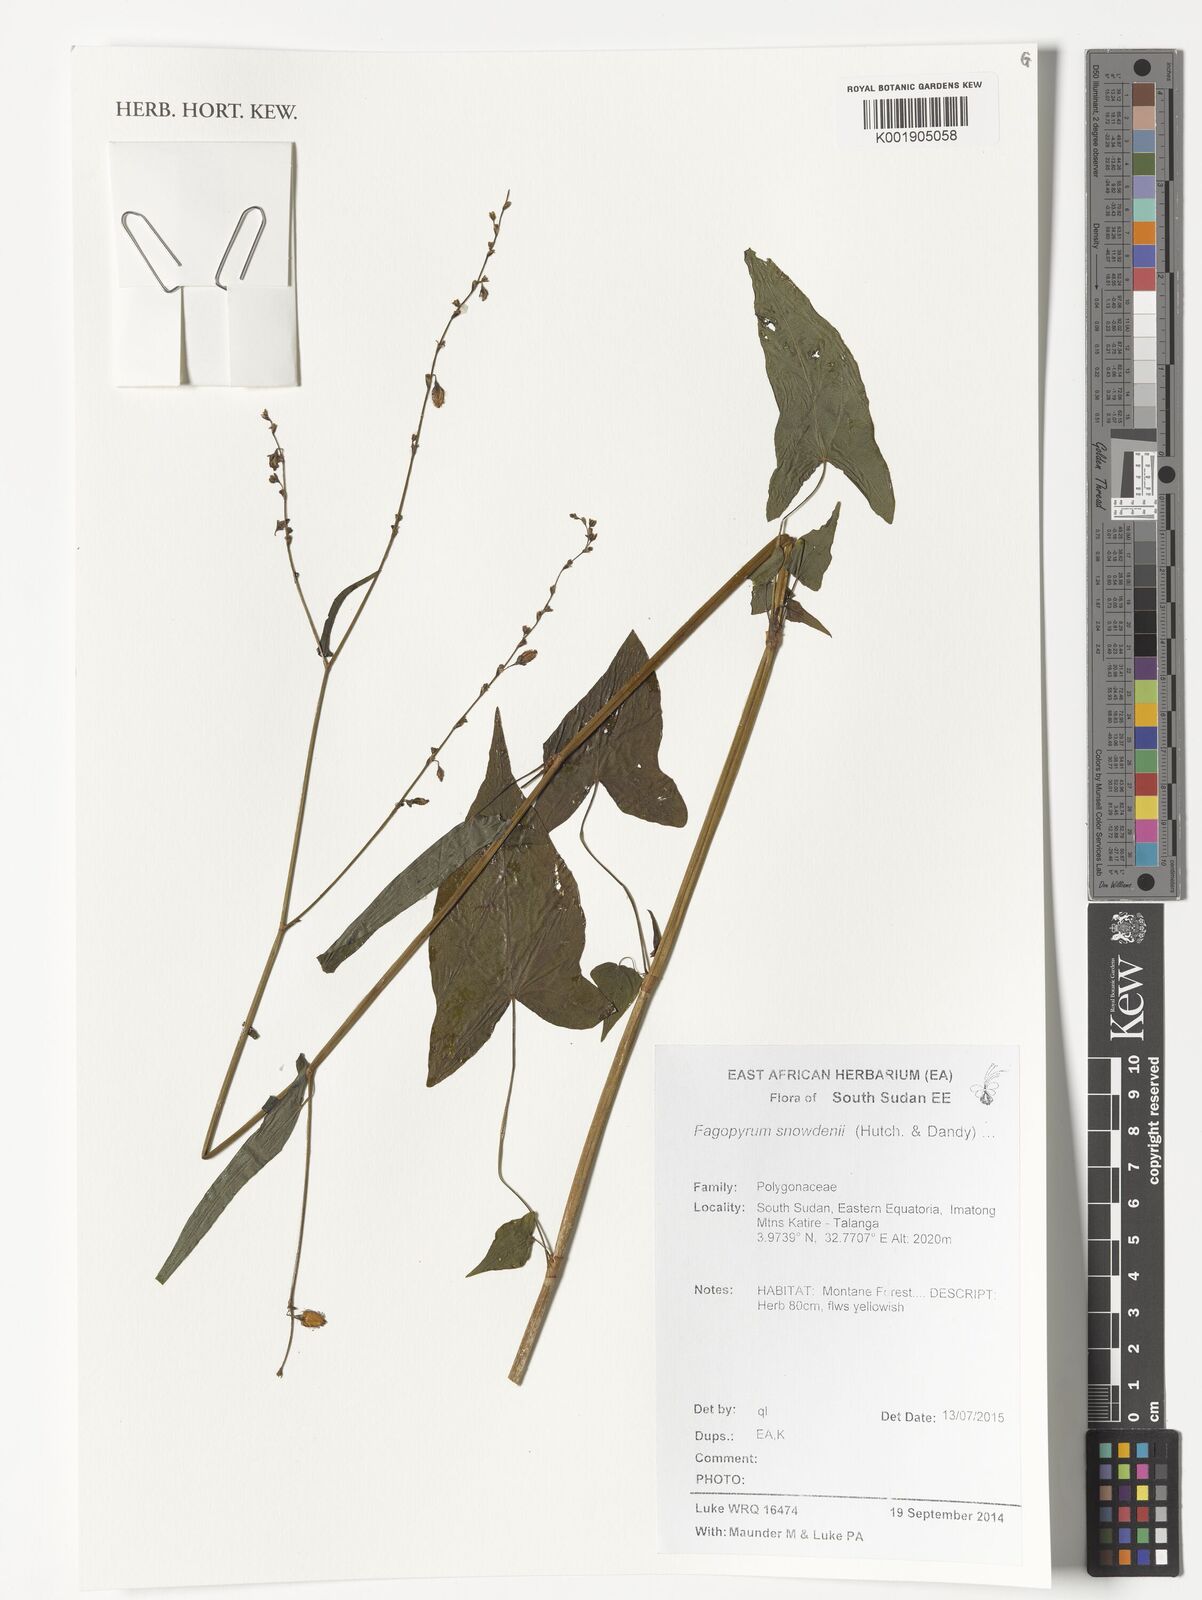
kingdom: Plantae
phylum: Tracheophyta
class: Magnoliopsida
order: Caryophyllales
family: Polygonaceae
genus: Harpagocarpus
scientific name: Harpagocarpus snowdenii
